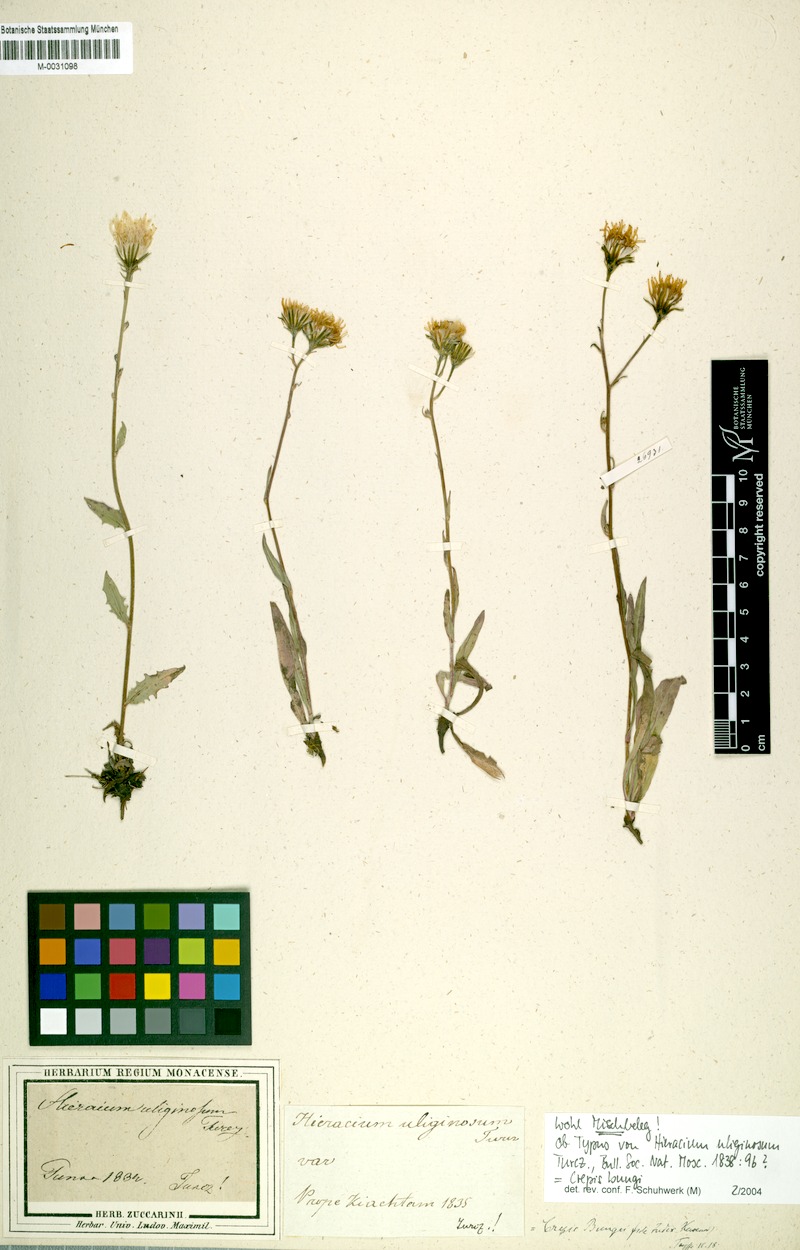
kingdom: Plantae
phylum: Tracheophyta
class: Magnoliopsida
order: Asterales
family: Asteraceae
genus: Crepis
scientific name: Crepis bungei
